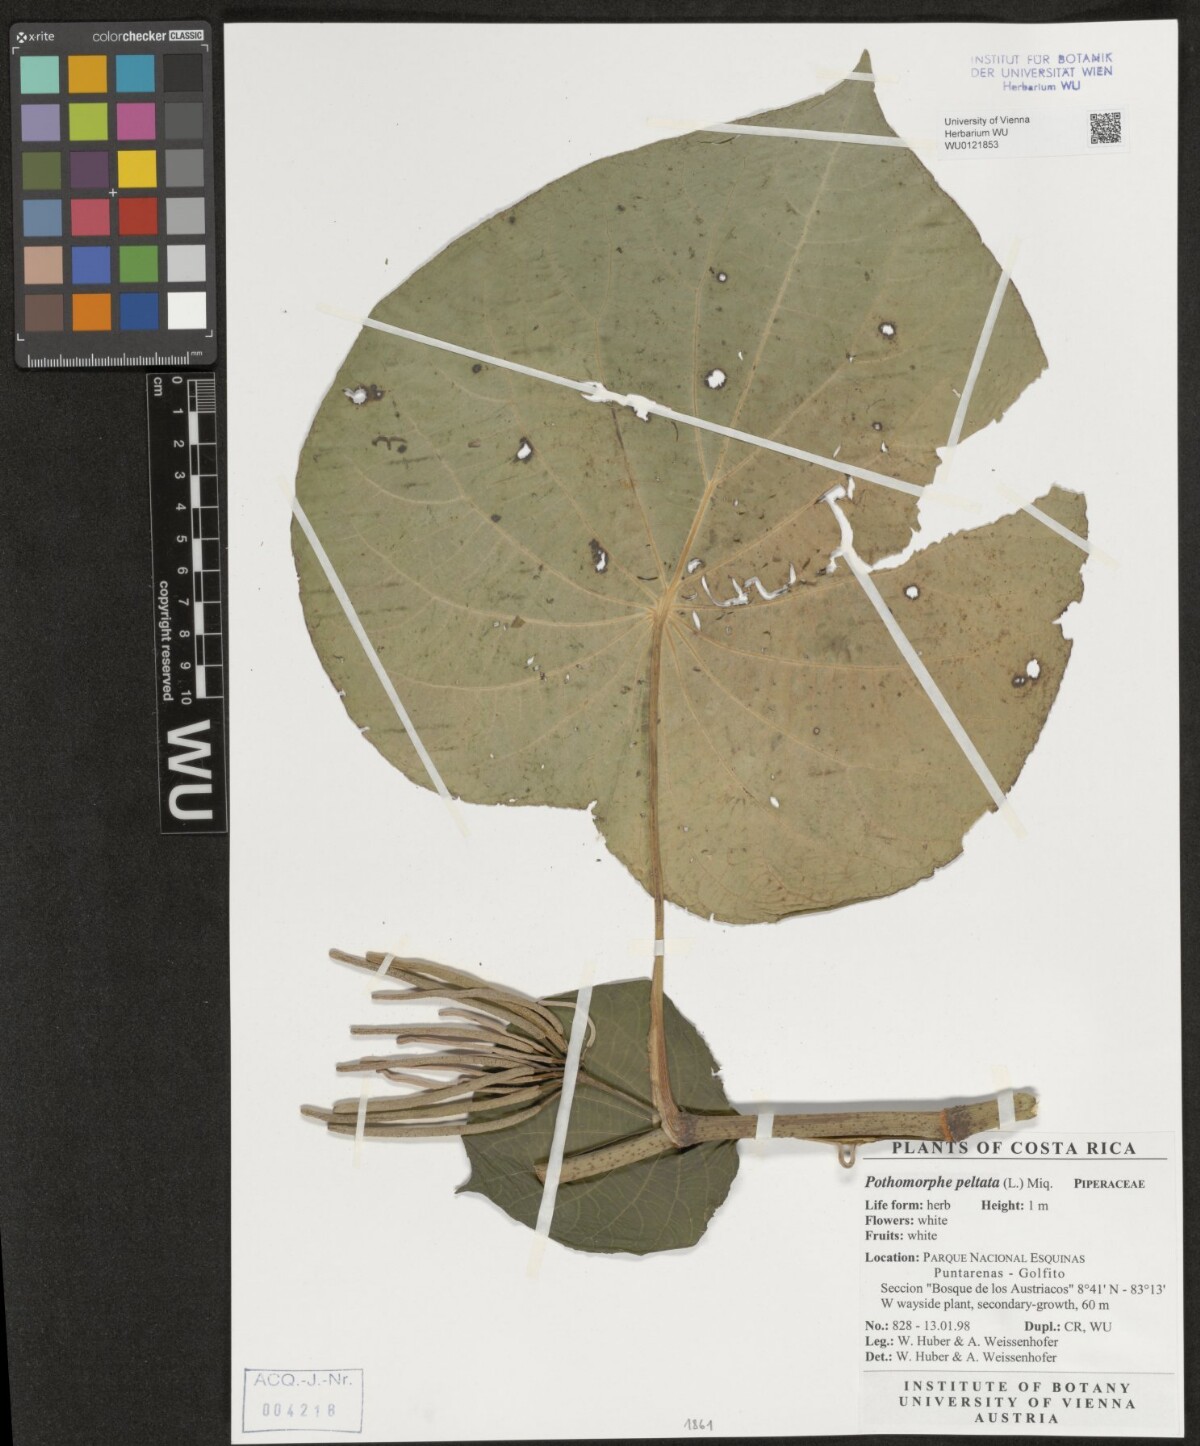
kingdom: Plantae
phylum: Tracheophyta
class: Magnoliopsida
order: Piperales
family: Piperaceae
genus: Piper
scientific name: Piper peltatum
